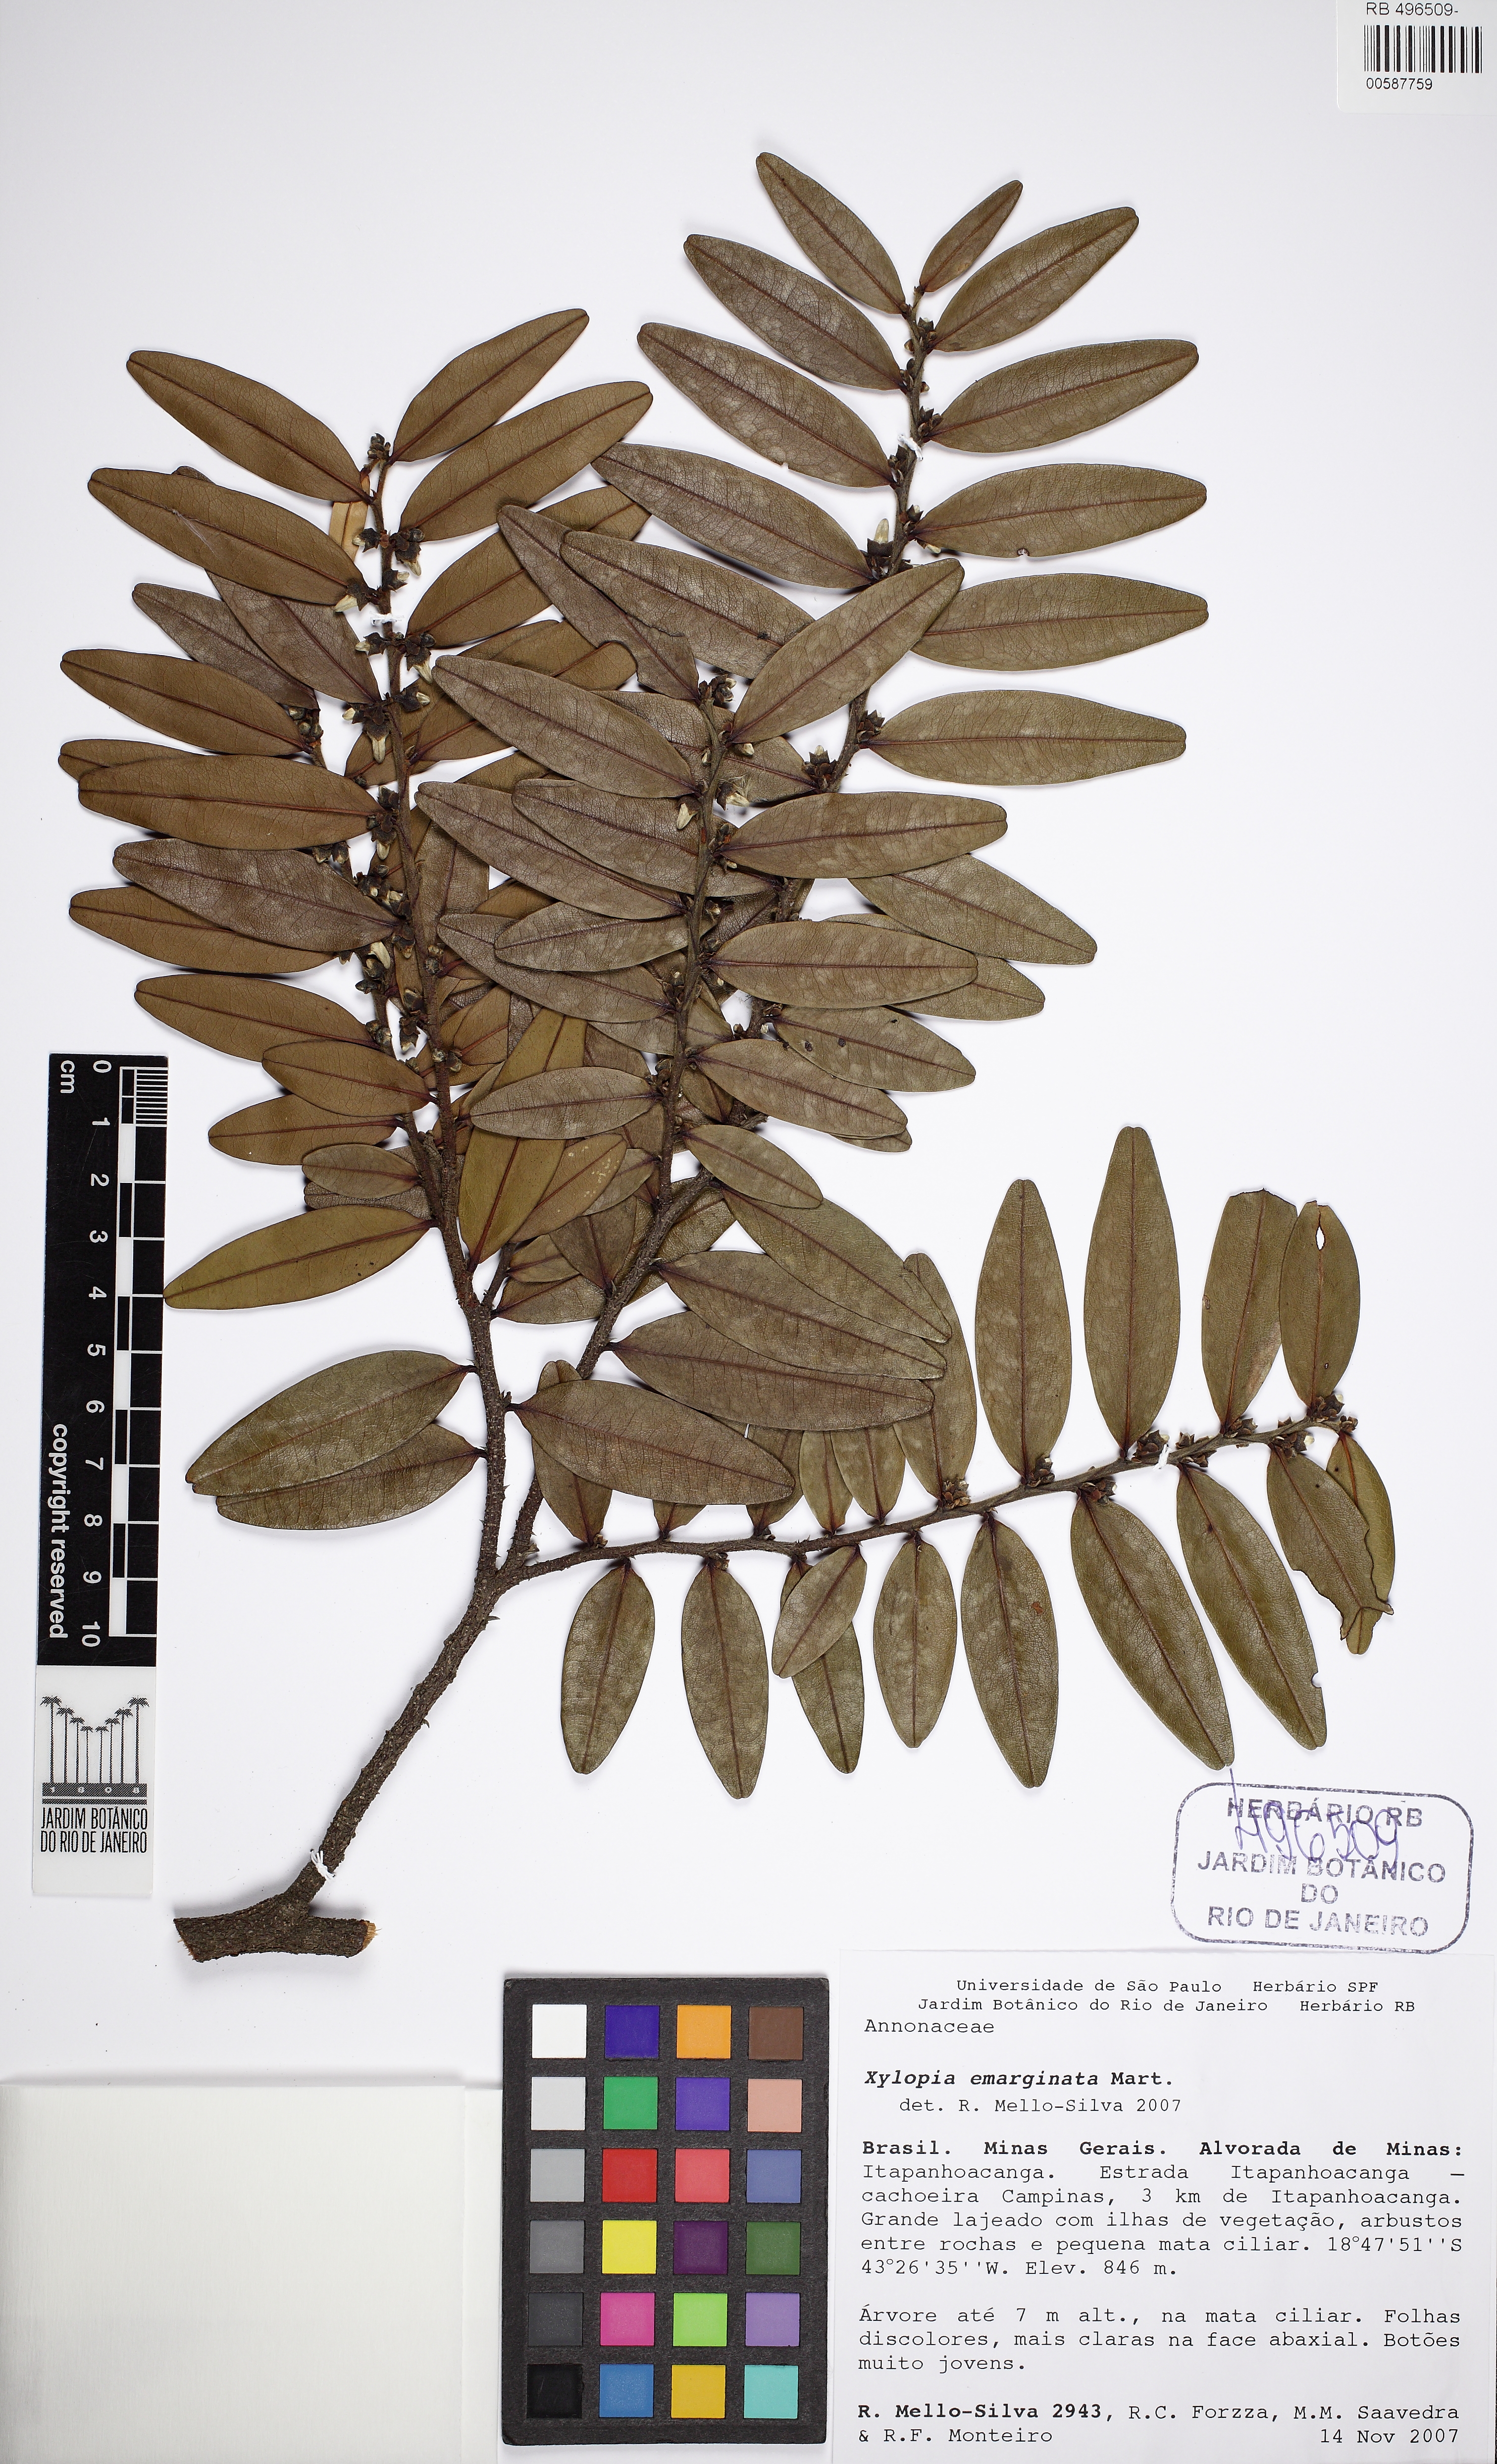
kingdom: Plantae
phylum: Tracheophyta
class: Magnoliopsida
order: Magnoliales
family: Annonaceae
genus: Xylopia
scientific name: Xylopia emarginata
